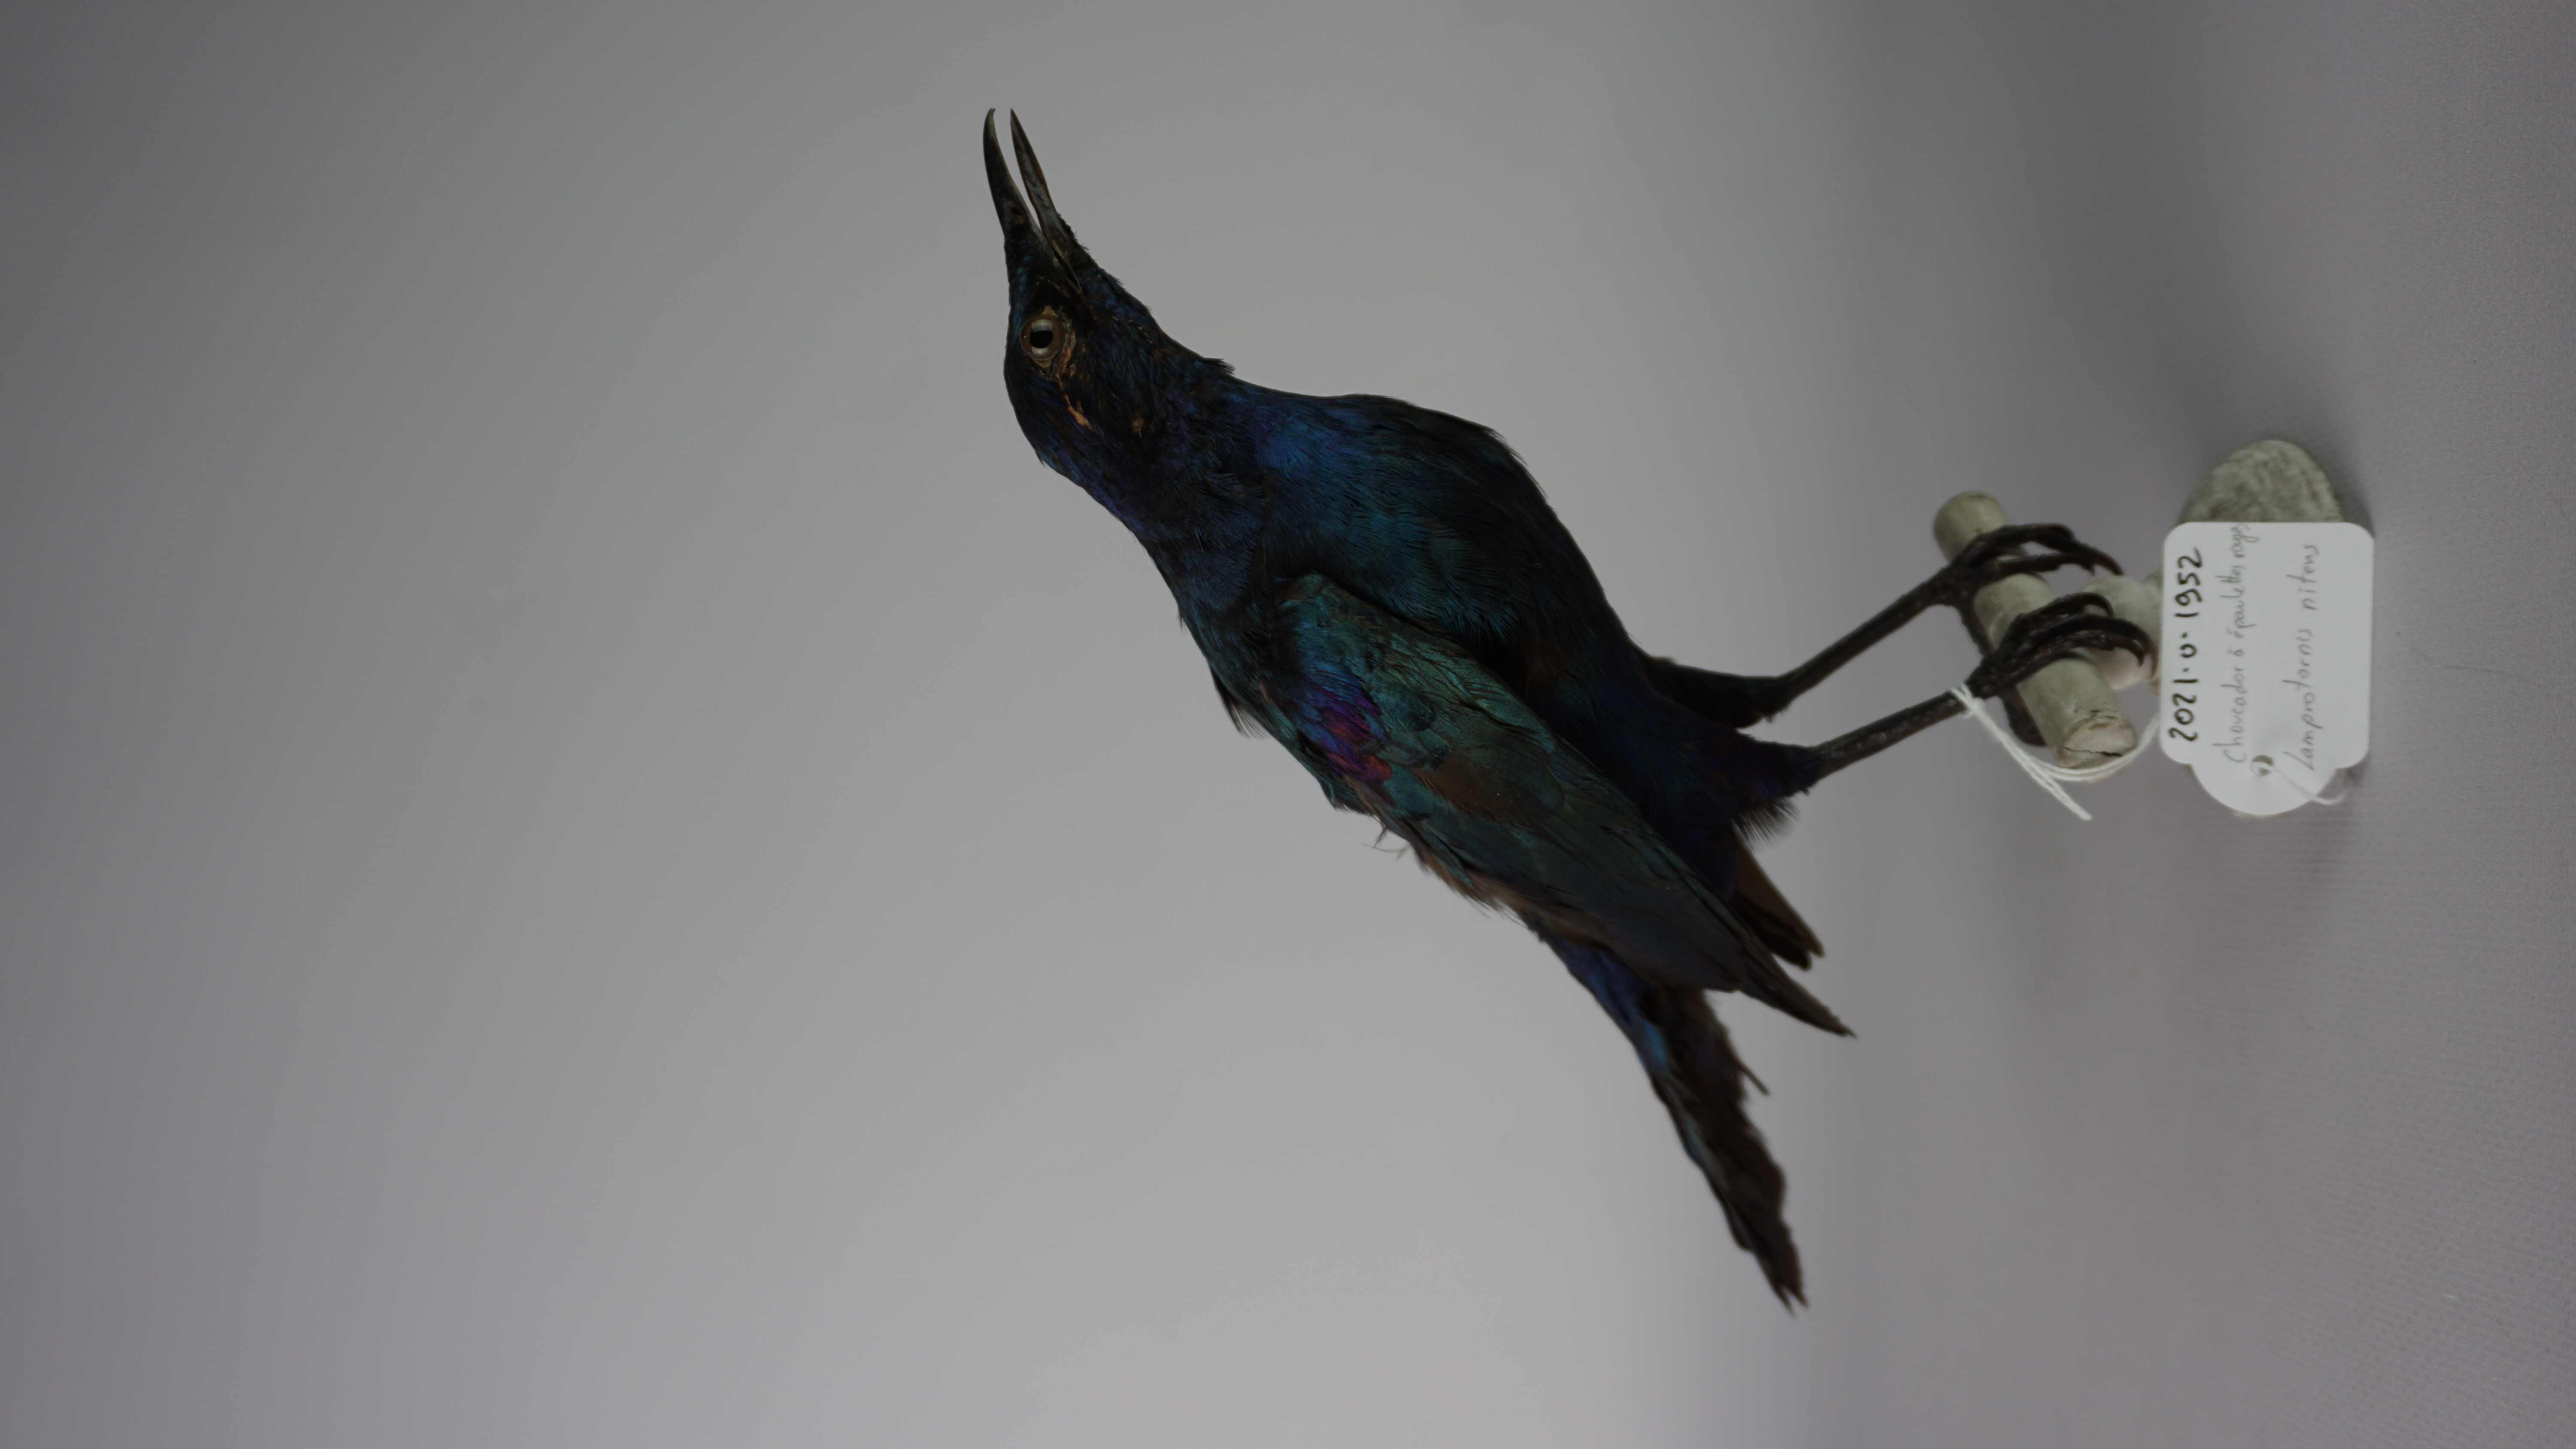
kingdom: Animalia
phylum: Chordata
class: Aves
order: Passeriformes
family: Sturnidae
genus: Lamprotornis
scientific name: Lamprotornis nitens
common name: Cape starling
